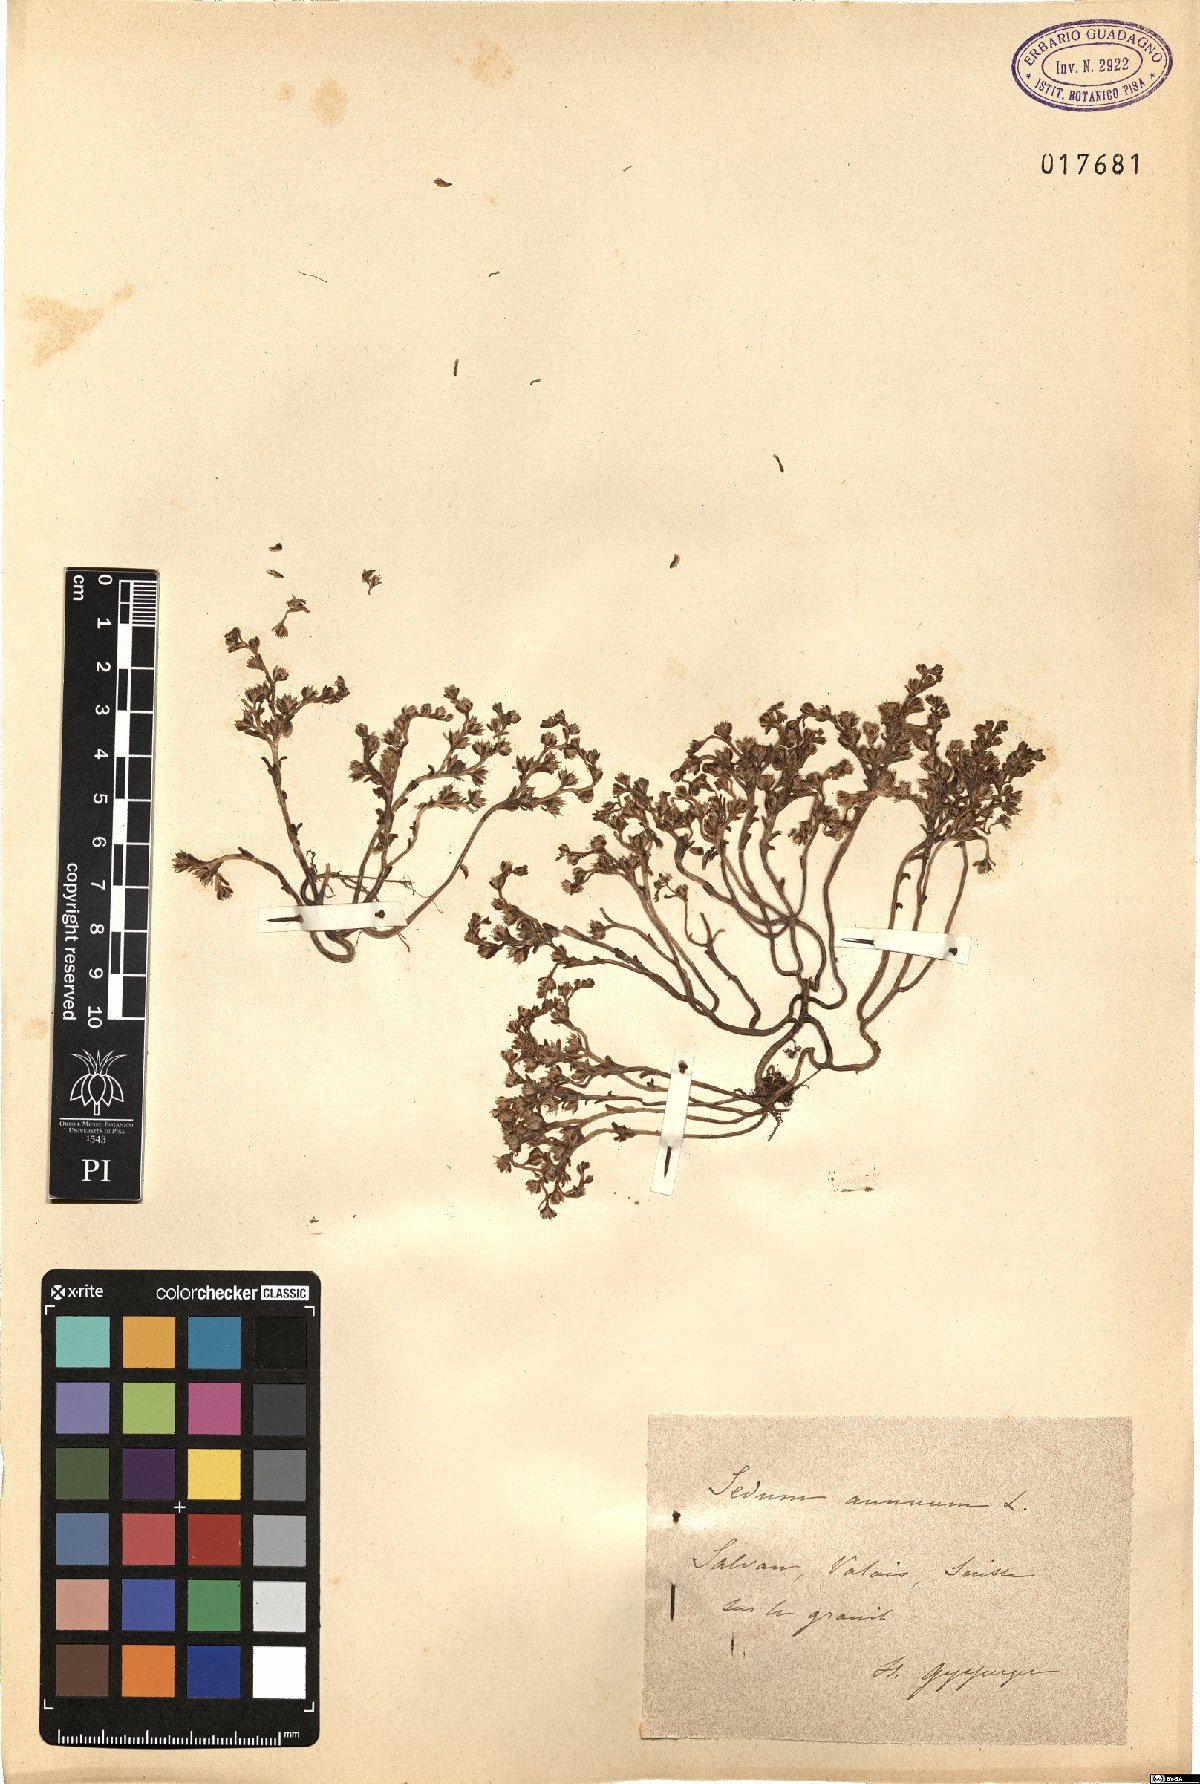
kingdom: Plantae
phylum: Tracheophyta
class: Magnoliopsida
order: Saxifragales
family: Crassulaceae
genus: Sedum
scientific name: Sedum annuum
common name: Annual stonecrop
